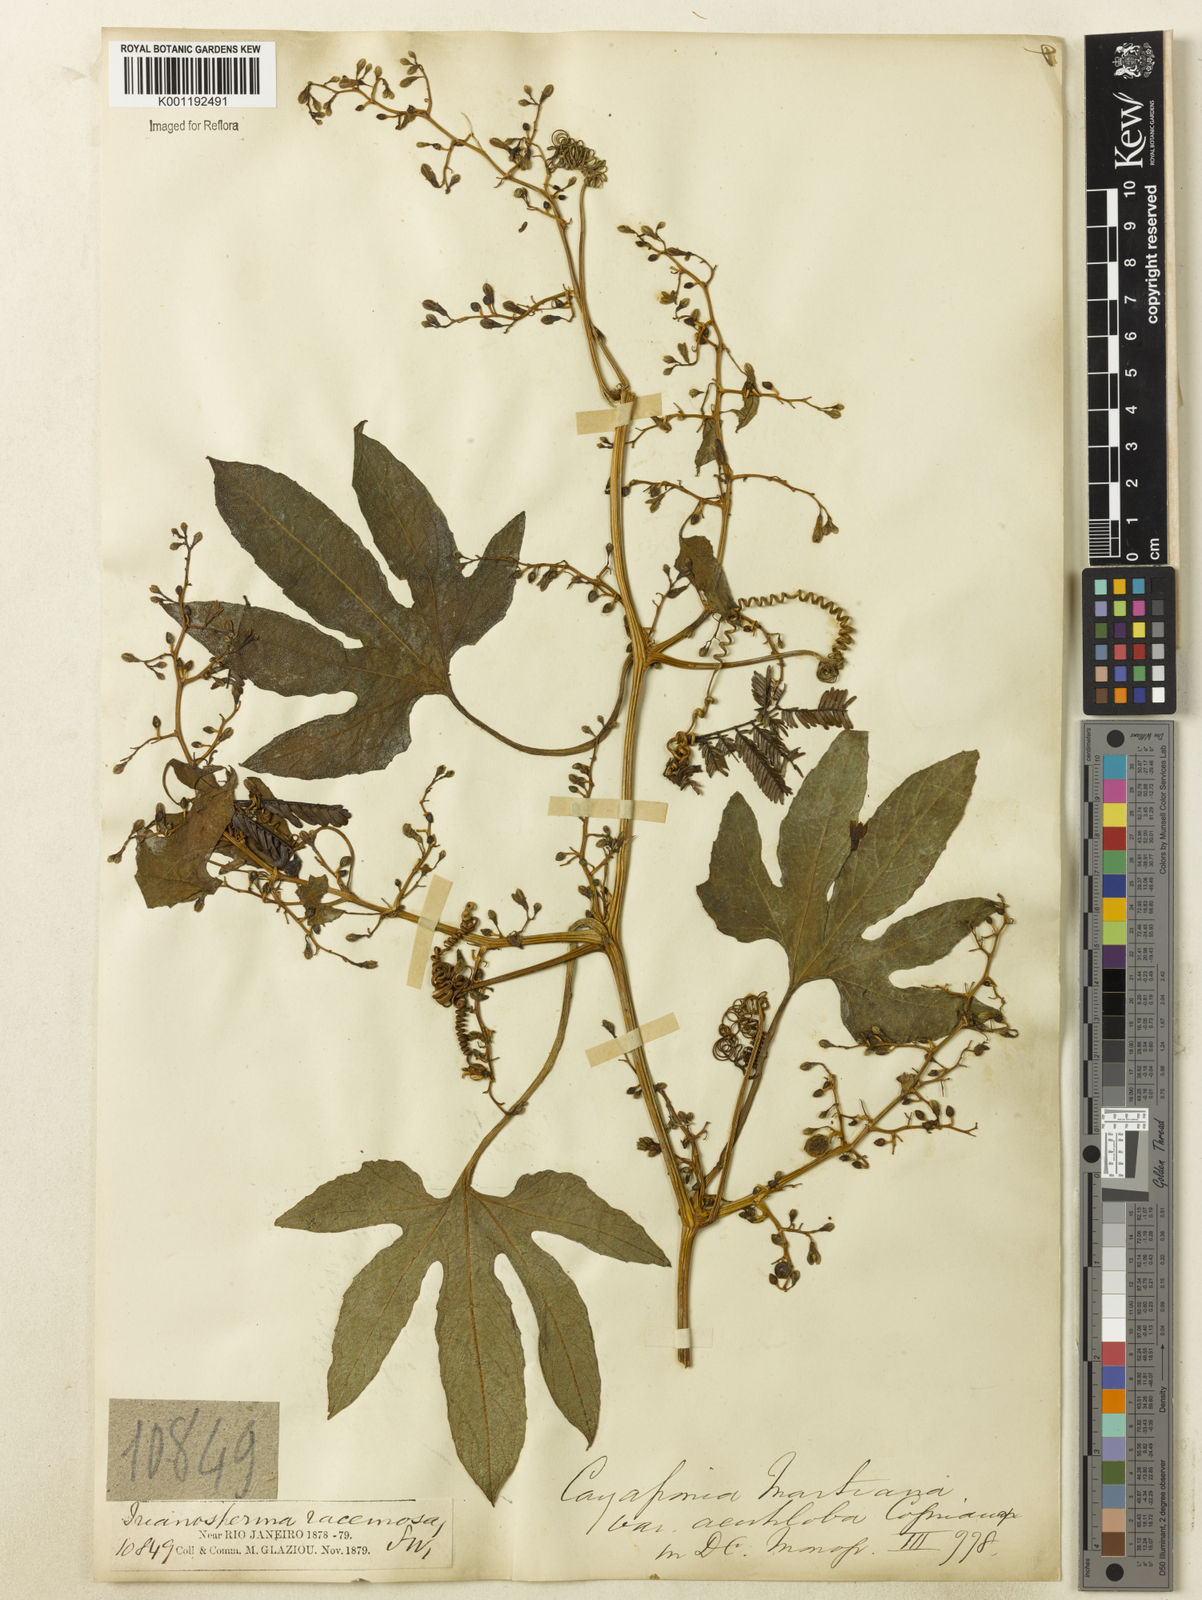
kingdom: Plantae
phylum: Tracheophyta
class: Magnoliopsida
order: Cucurbitales
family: Cucurbitaceae
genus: Cayaponia
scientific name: Cayaponia martiana
